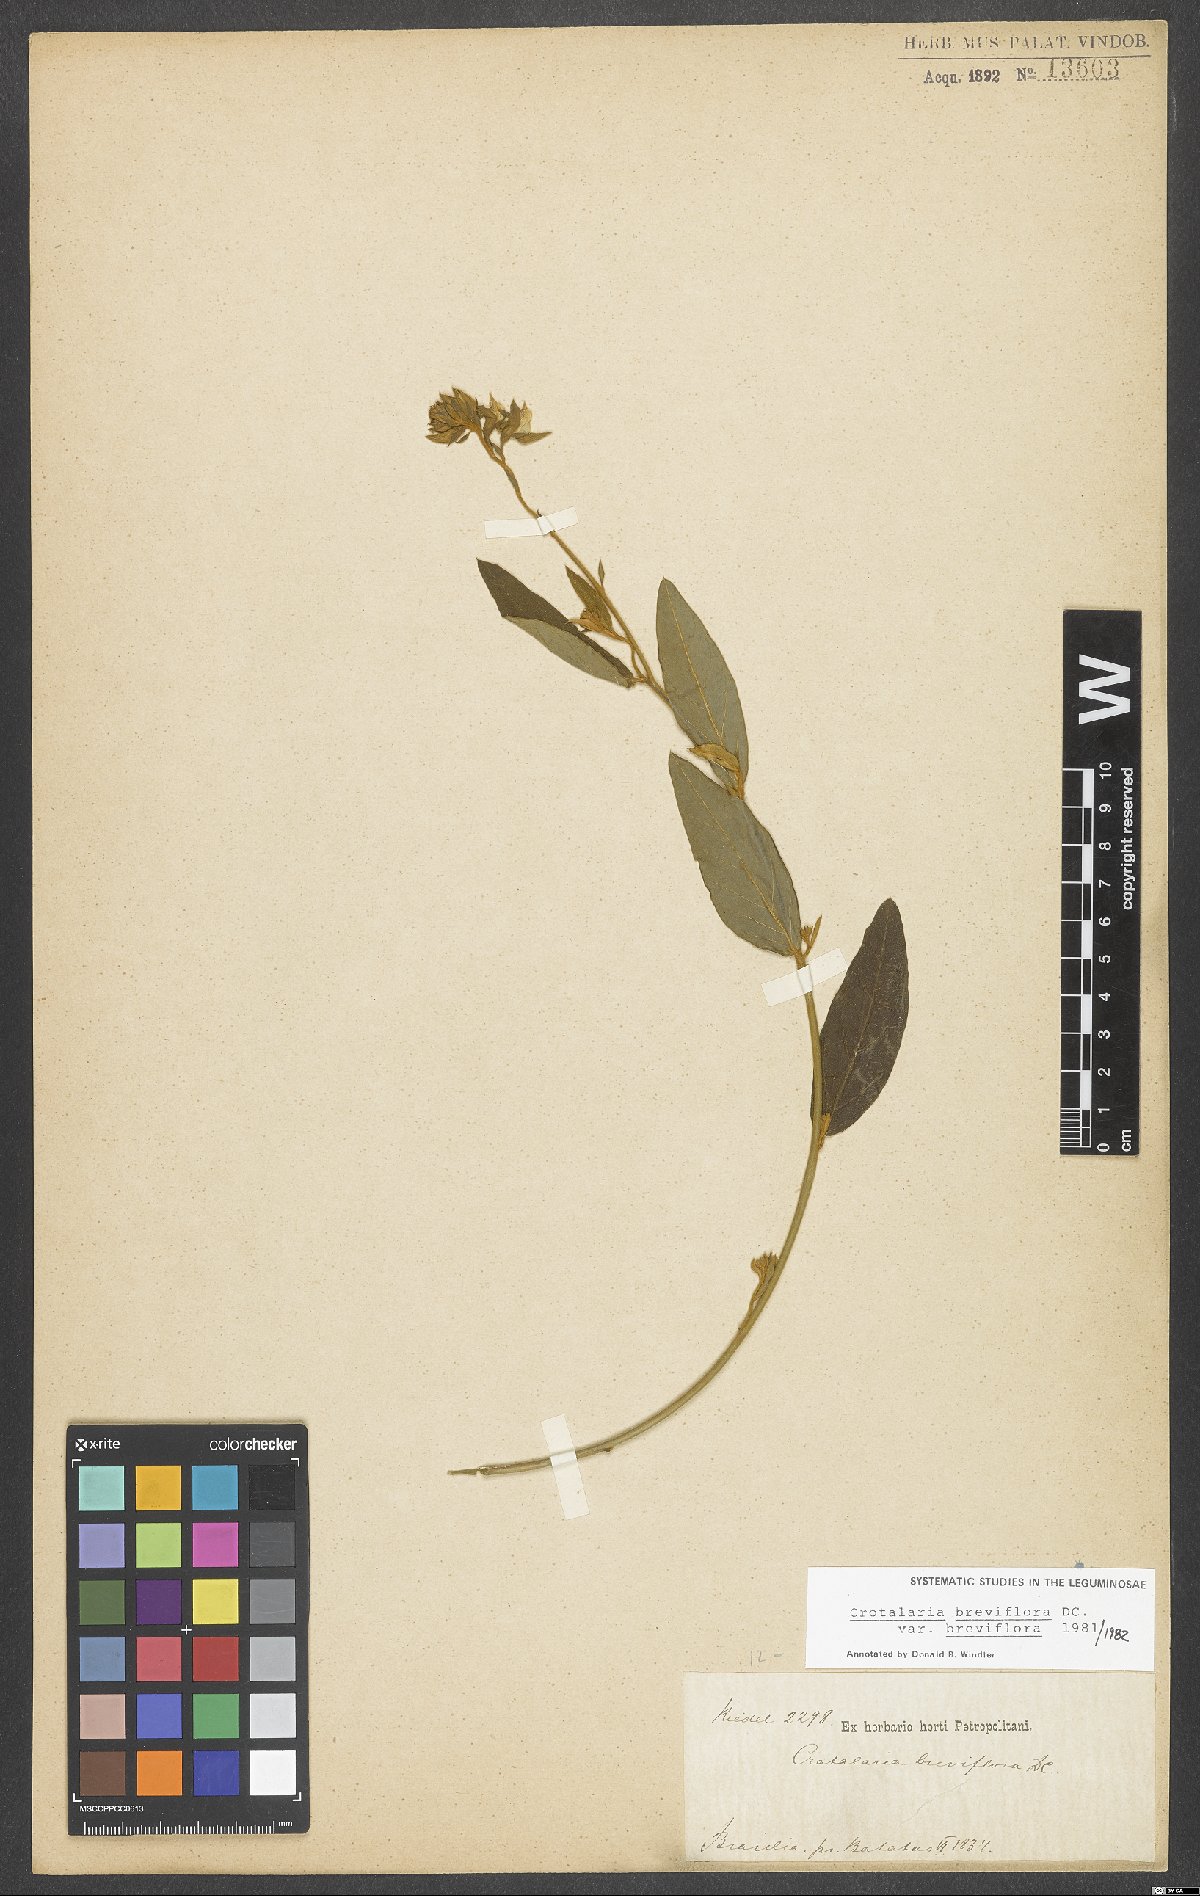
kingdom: Plantae
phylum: Tracheophyta
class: Magnoliopsida
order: Fabales
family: Fabaceae
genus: Crotalaria
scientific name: Crotalaria breviflora
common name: Short-flower crotalaria
